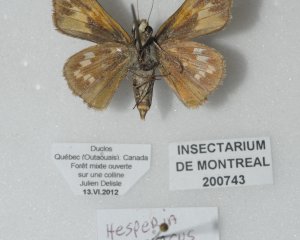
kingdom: Animalia
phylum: Arthropoda
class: Insecta
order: Lepidoptera
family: Hesperiidae
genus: Hesperia
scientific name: Hesperia sassacus
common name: Sassacus Skipper
